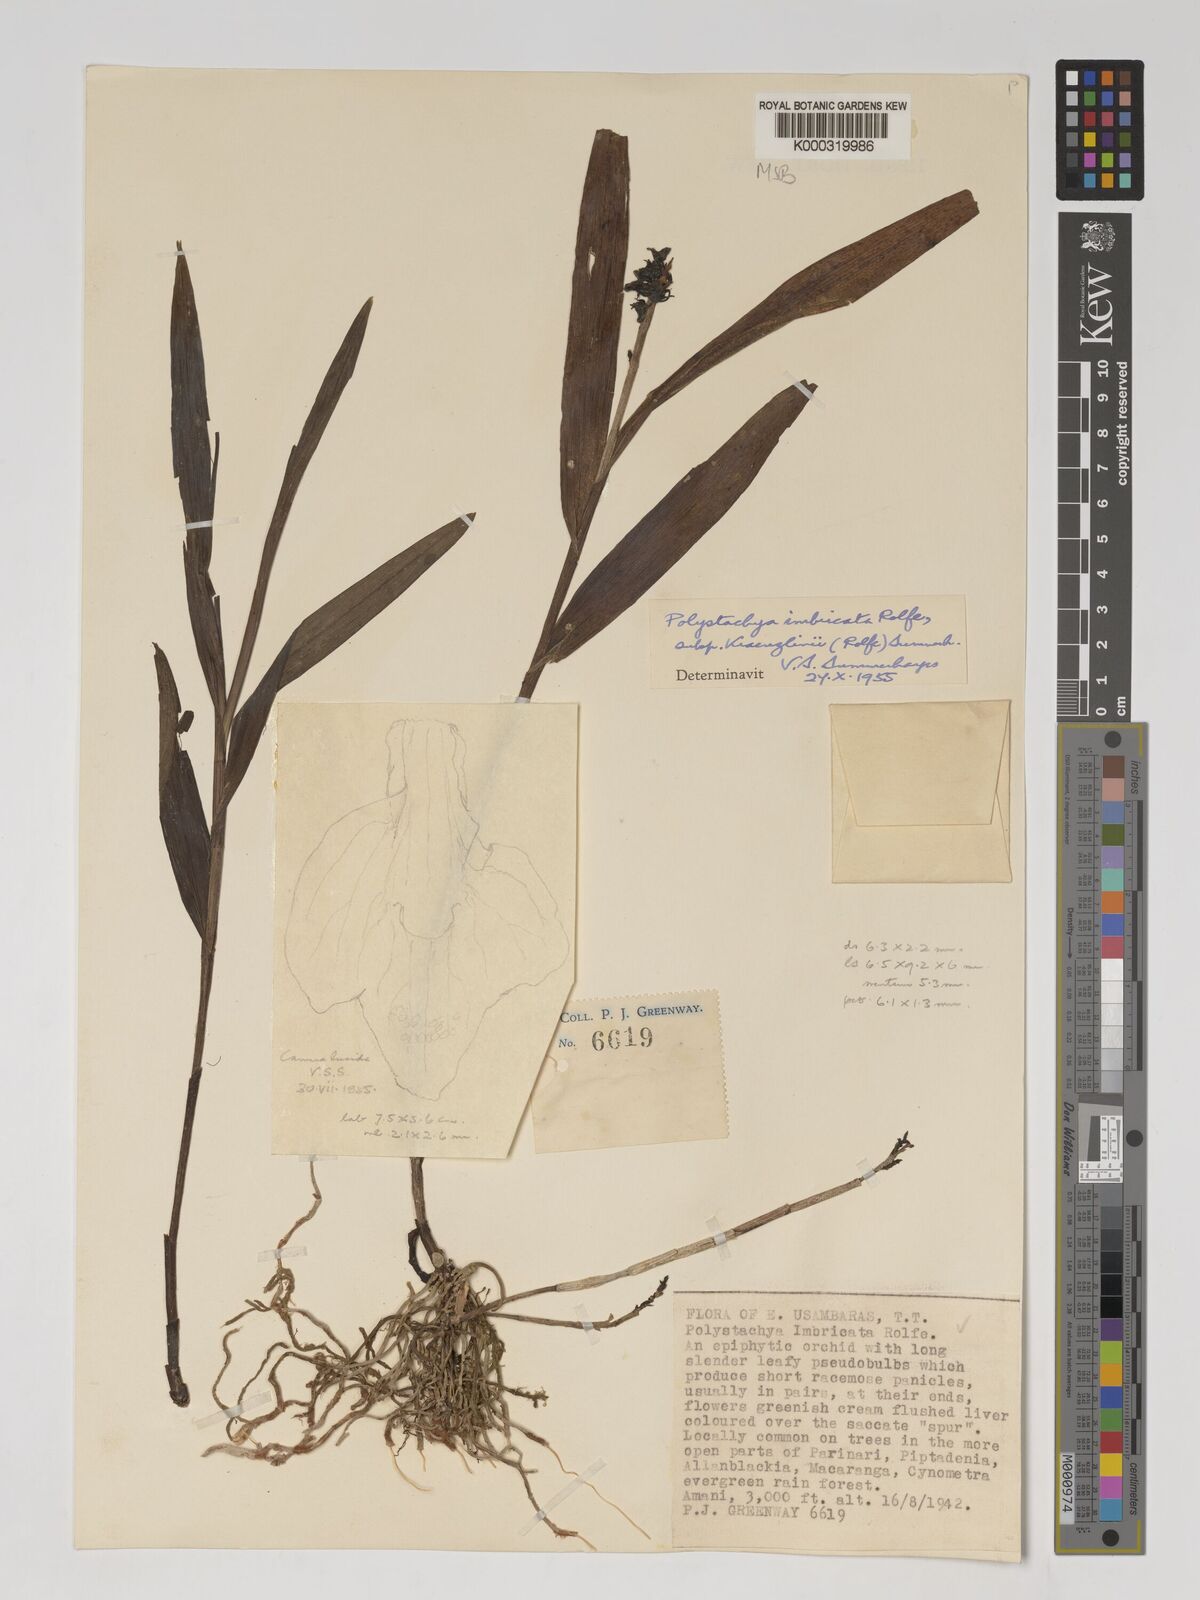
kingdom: Plantae
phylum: Tracheophyta
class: Liliopsida
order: Asparagales
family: Orchidaceae
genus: Polystachya
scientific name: Polystachya albescens
